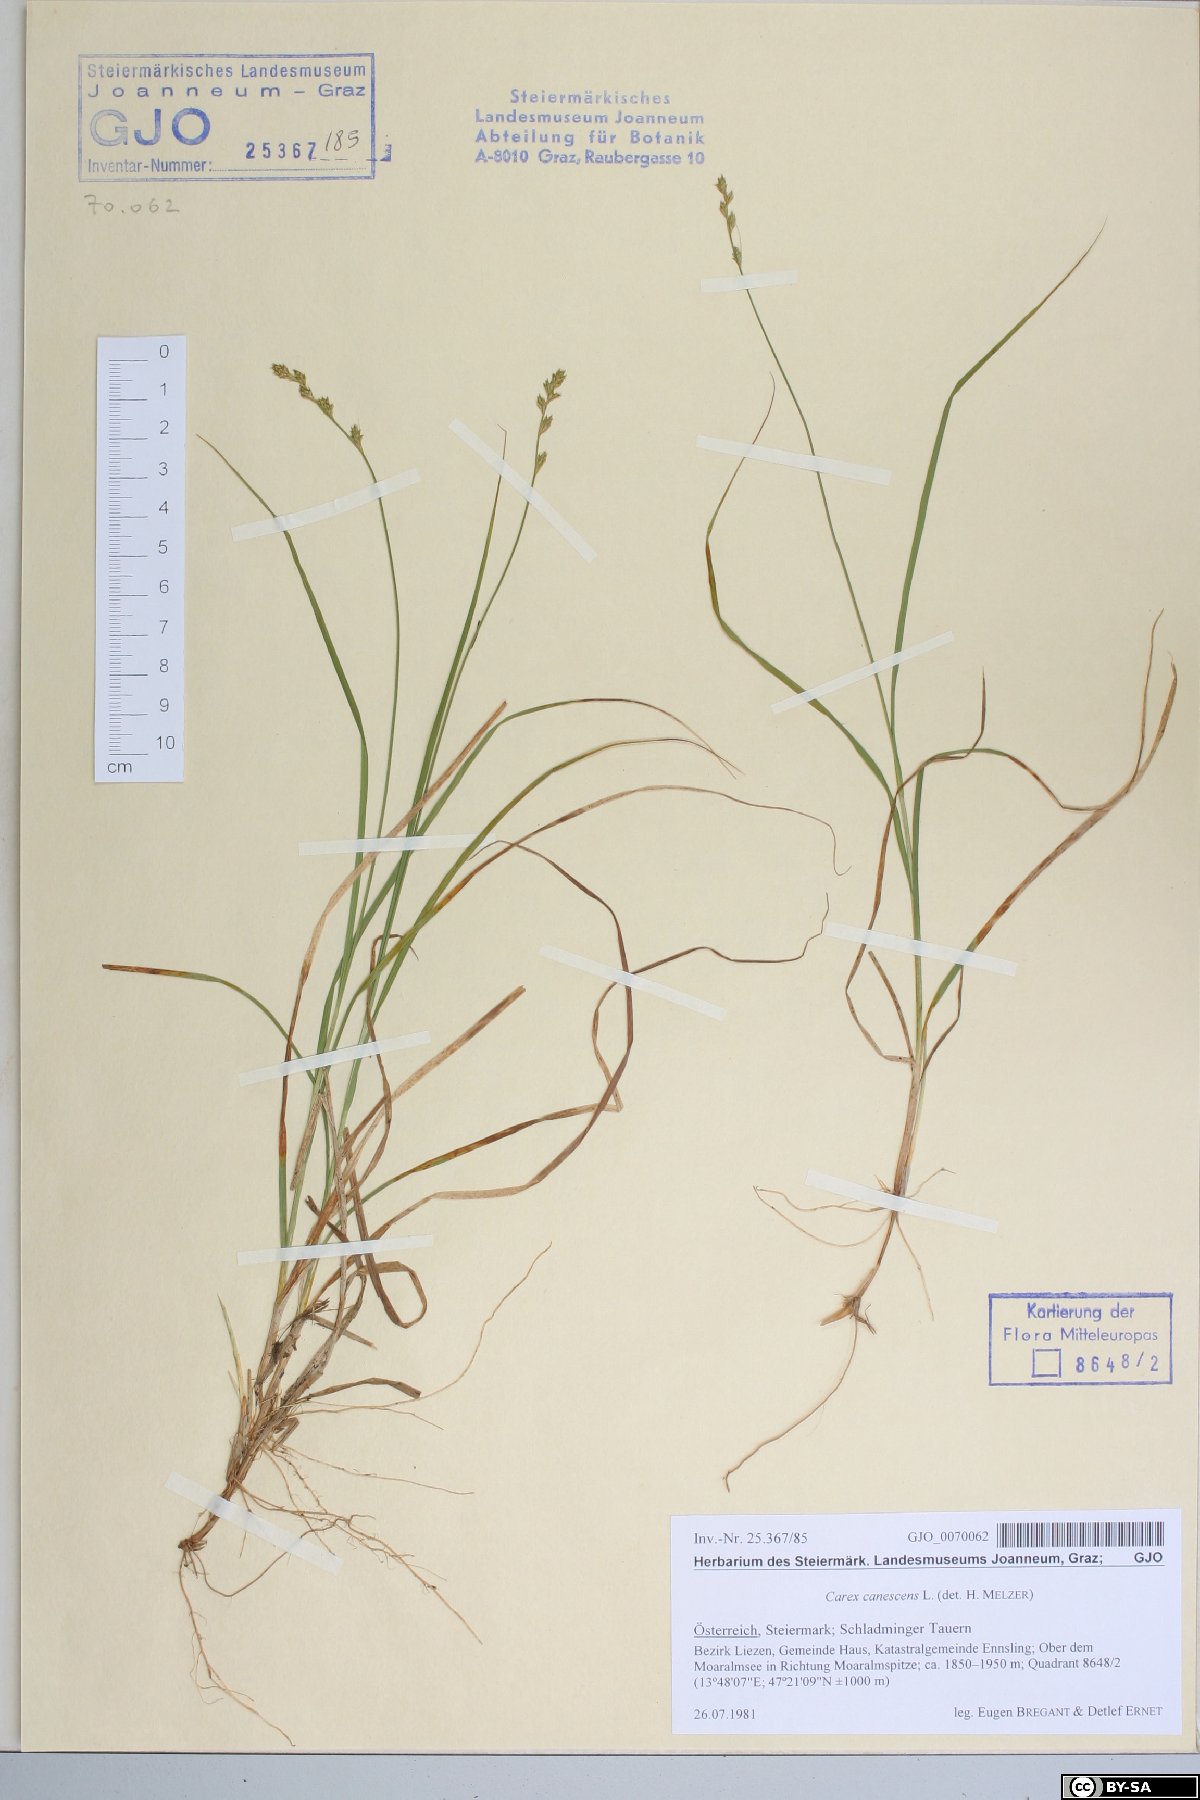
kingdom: Plantae
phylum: Tracheophyta
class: Liliopsida
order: Poales
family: Cyperaceae
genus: Carex
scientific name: Carex canescens
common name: White sedge
